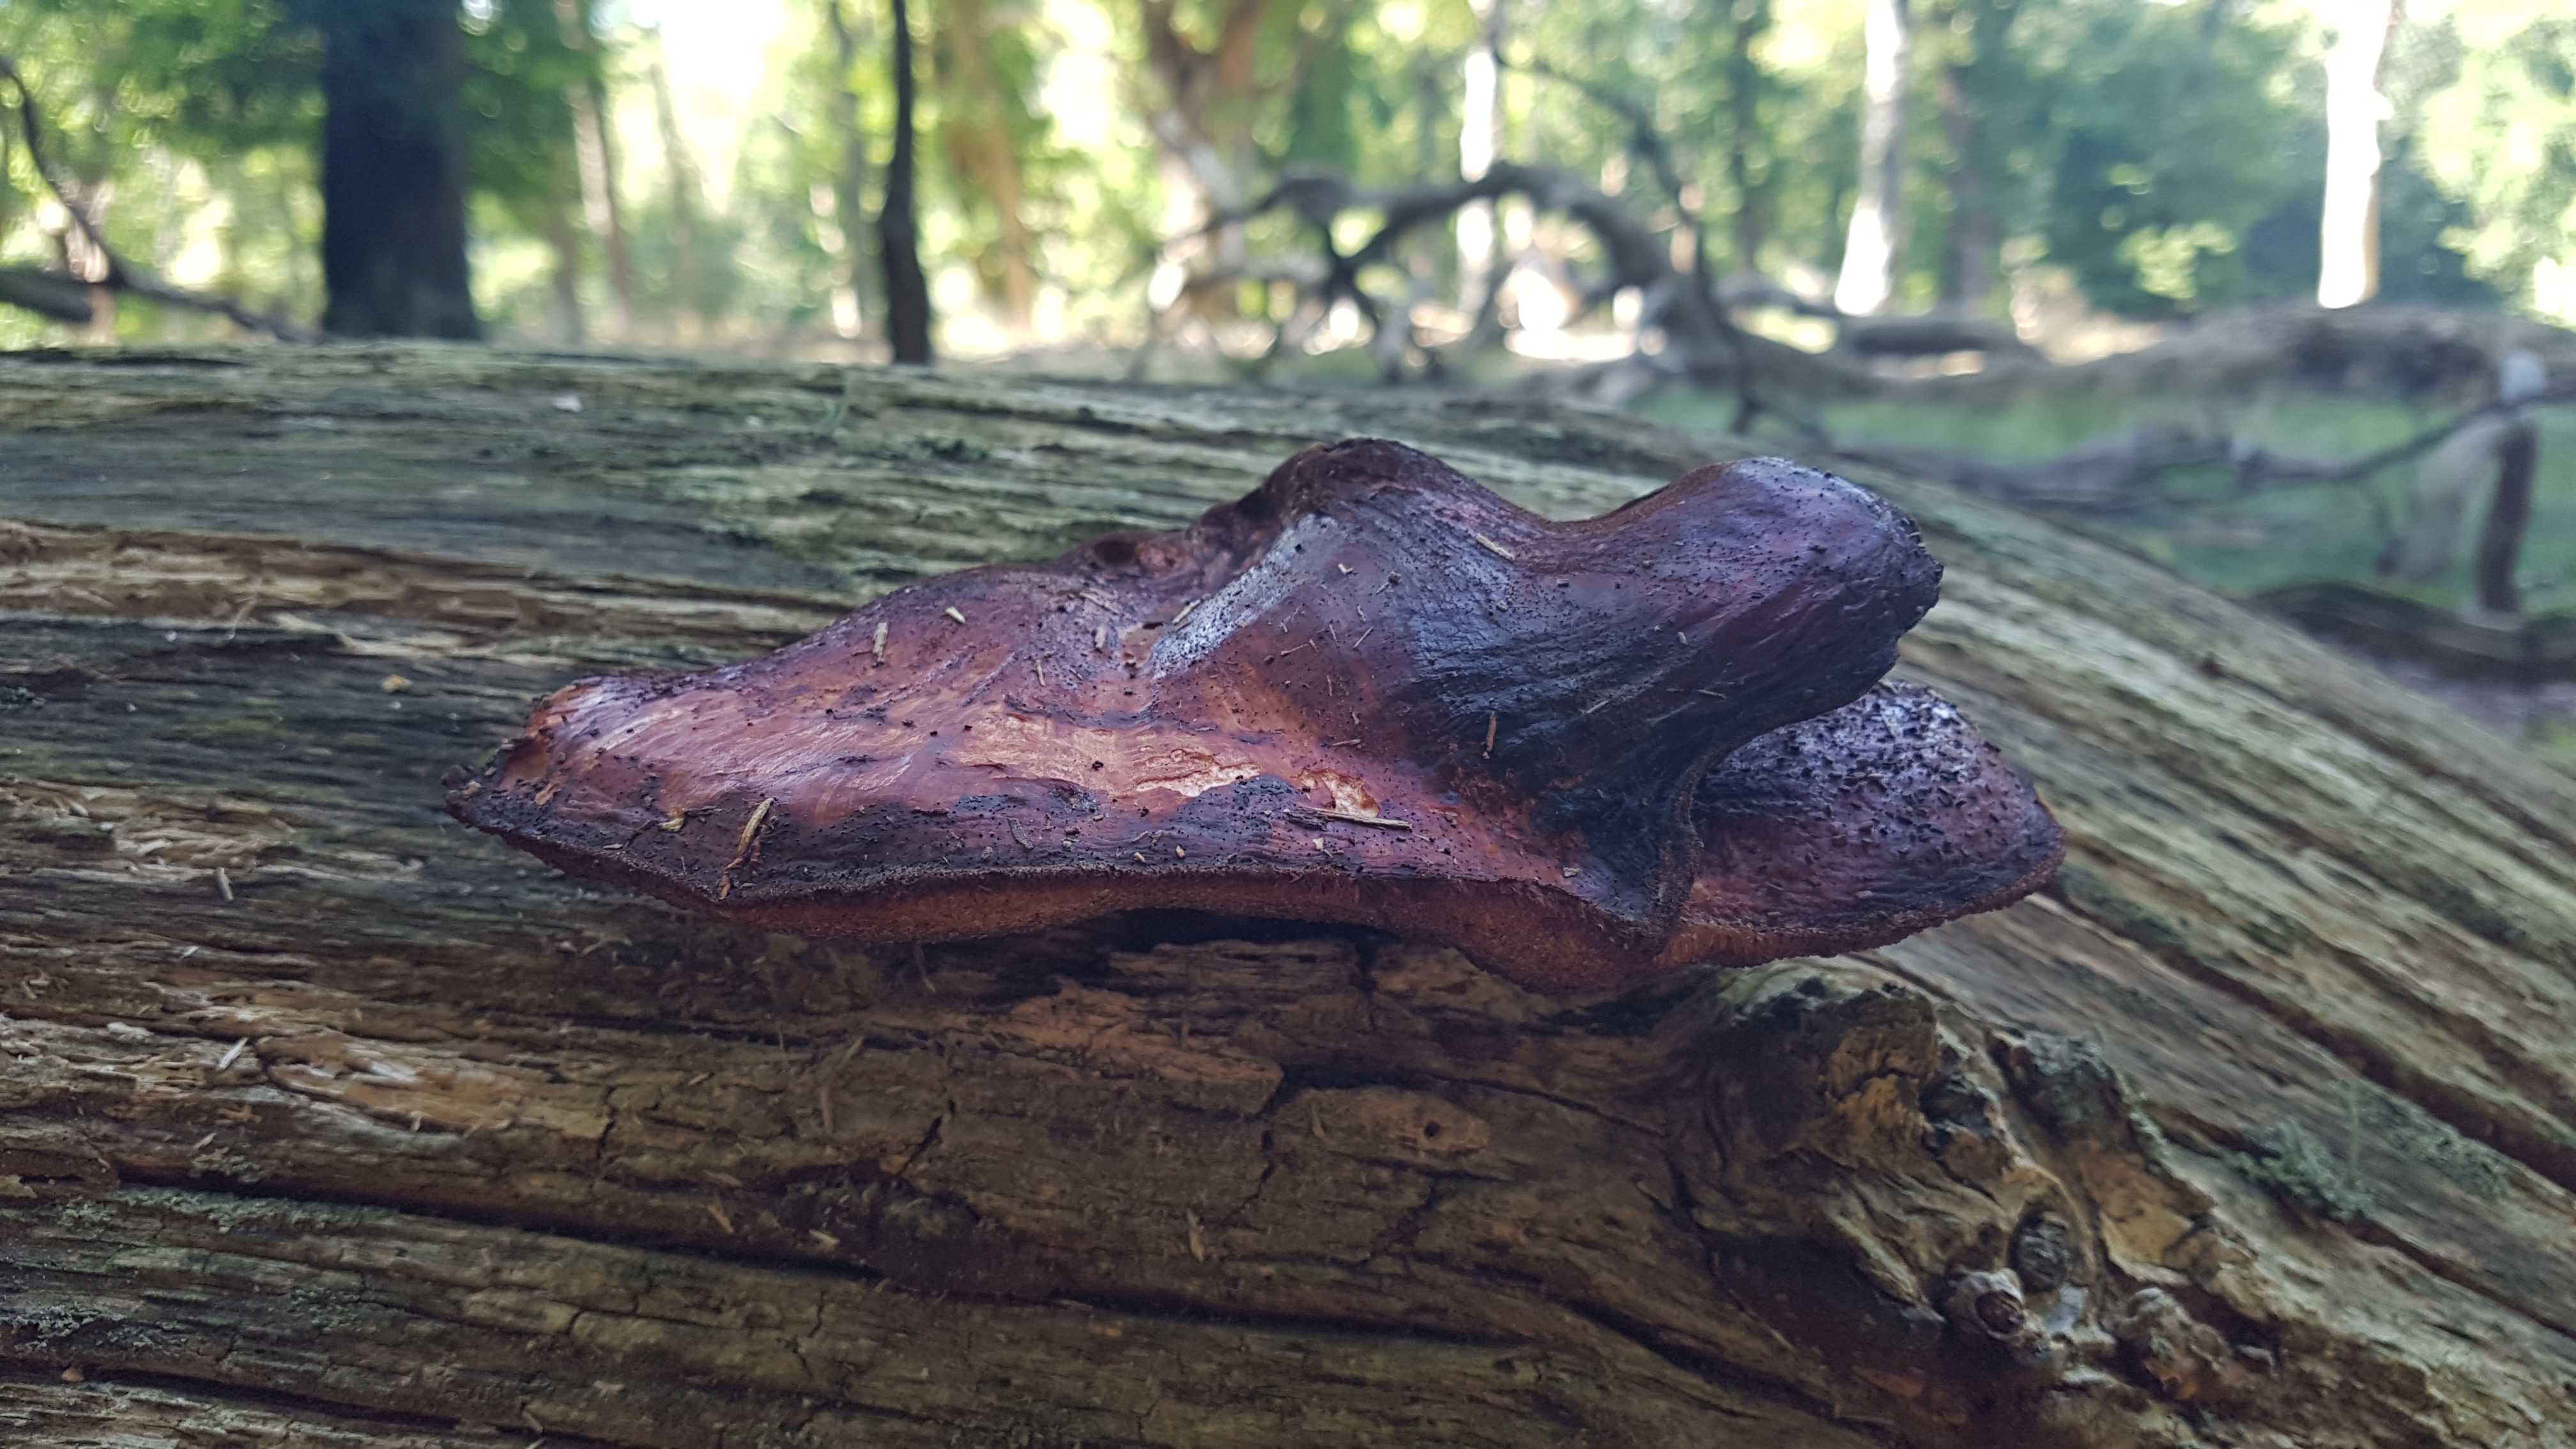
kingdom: Fungi
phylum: Basidiomycota
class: Agaricomycetes
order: Agaricales
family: Fistulinaceae
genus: Fistulina
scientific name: Fistulina hepatica
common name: oksetunge
